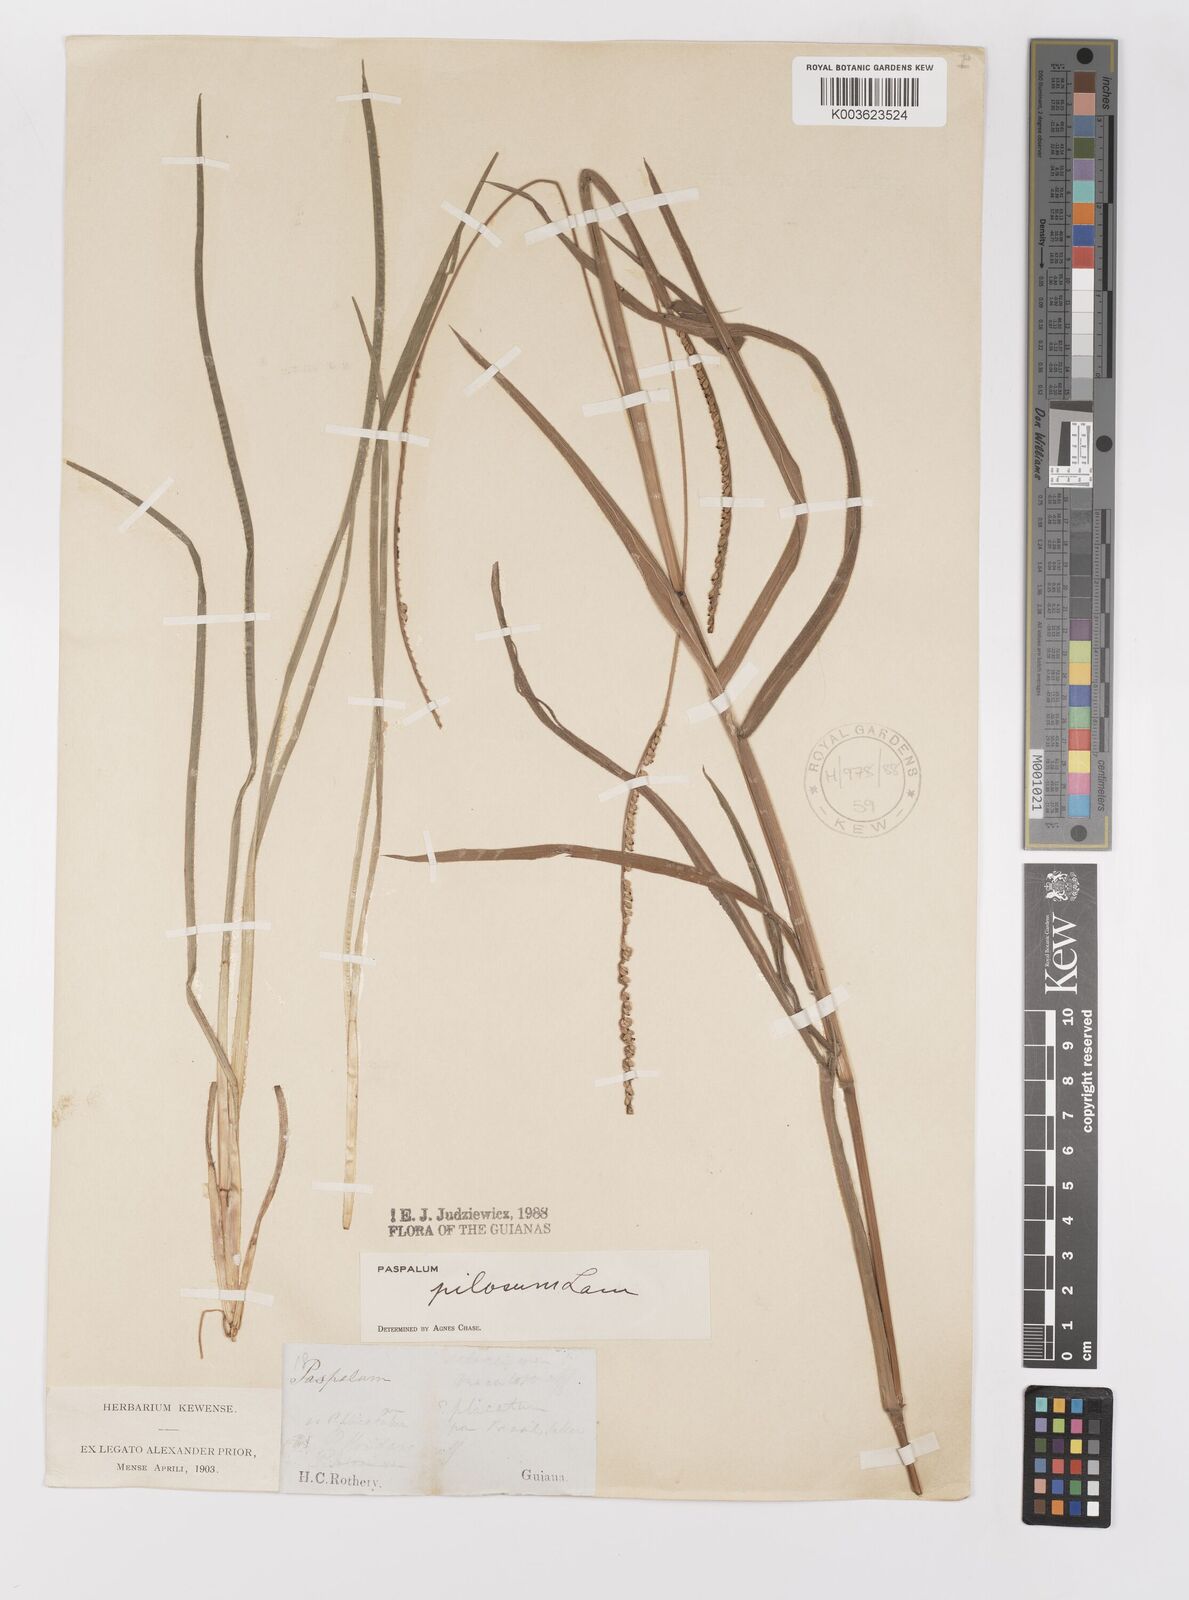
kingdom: Plantae
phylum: Tracheophyta
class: Liliopsida
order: Poales
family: Poaceae
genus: Paspalum
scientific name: Paspalum pilosum
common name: Crowngrass
